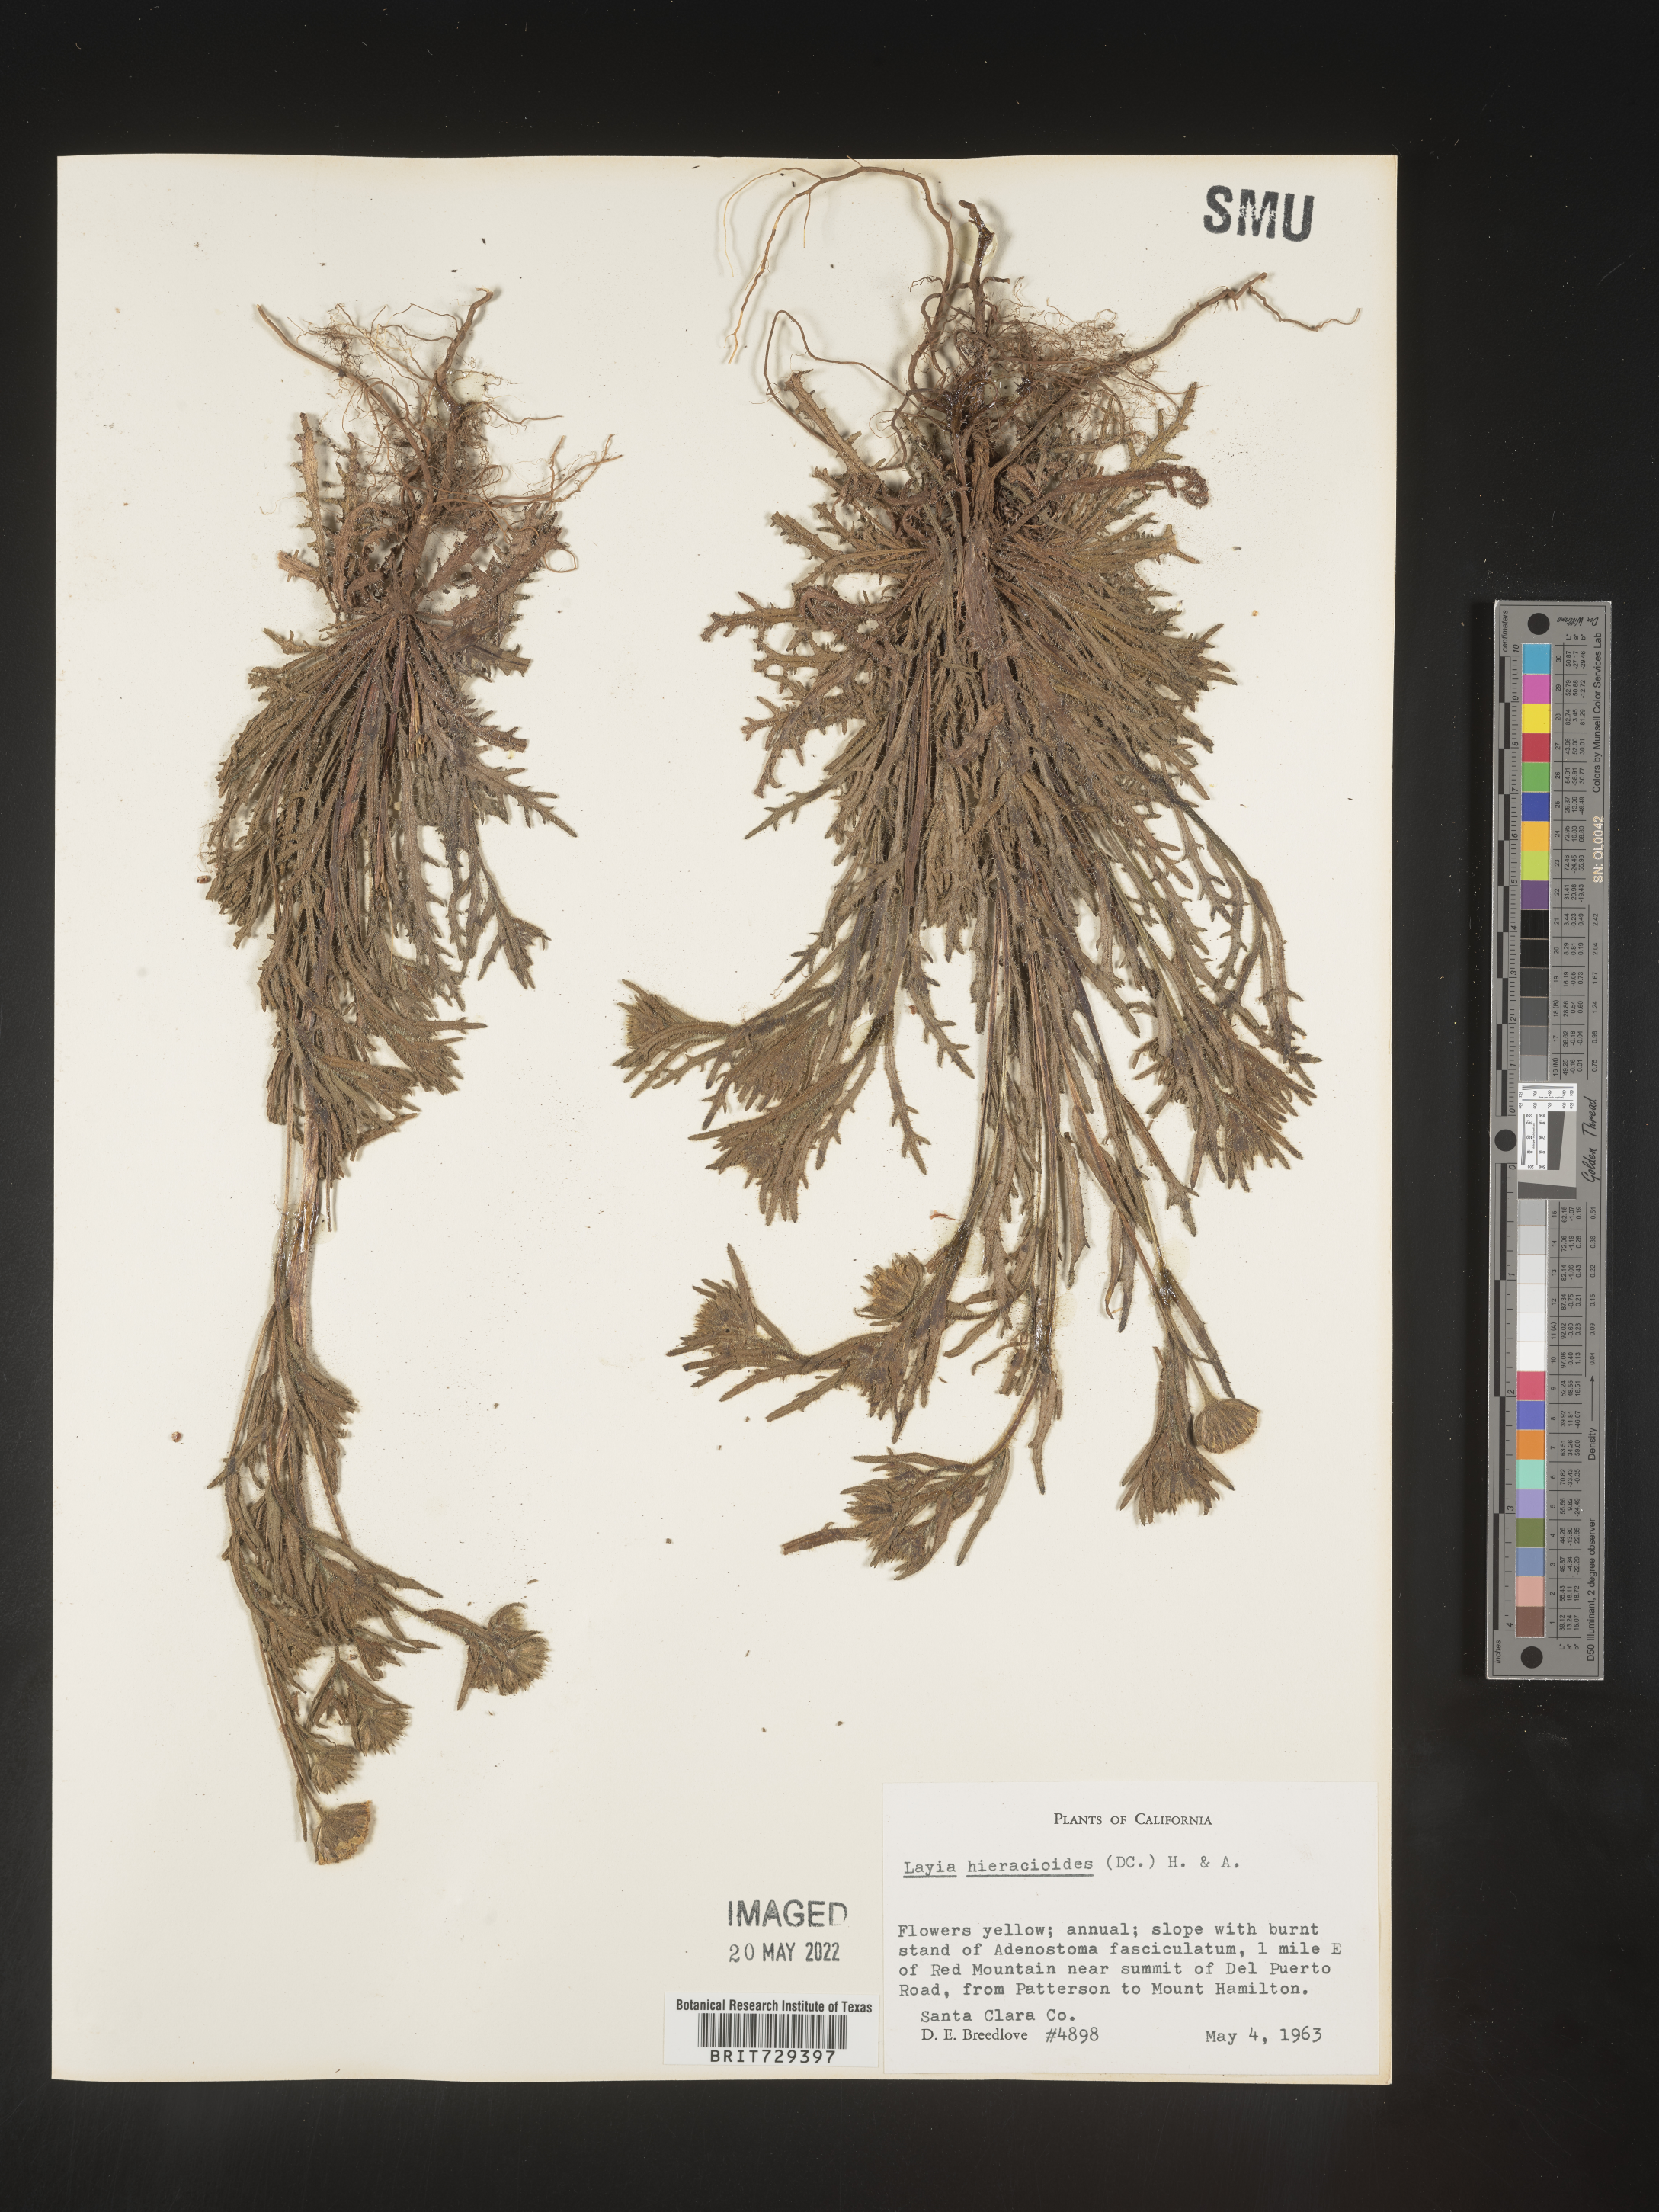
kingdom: Plantae
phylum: Tracheophyta
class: Magnoliopsida
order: Asterales
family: Asteraceae
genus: Layia
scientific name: Layia
